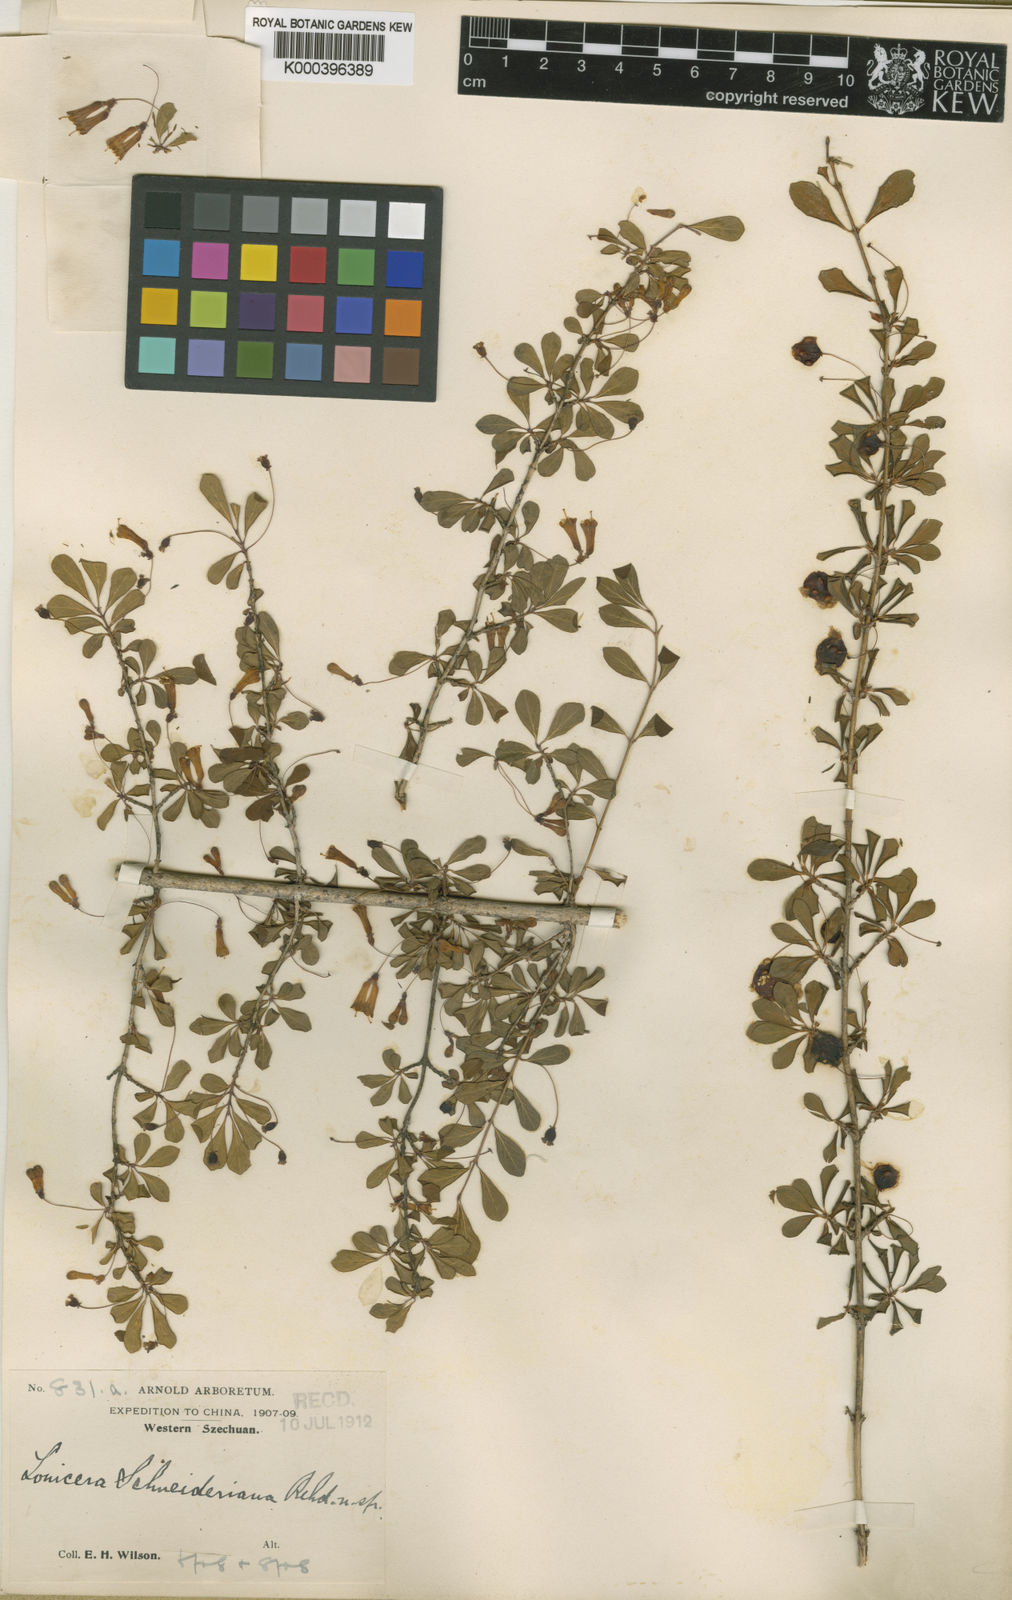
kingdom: Plantae
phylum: Tracheophyta
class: Magnoliopsida
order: Dipsacales
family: Caprifoliaceae
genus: Lonicera
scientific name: Lonicera tangutica
